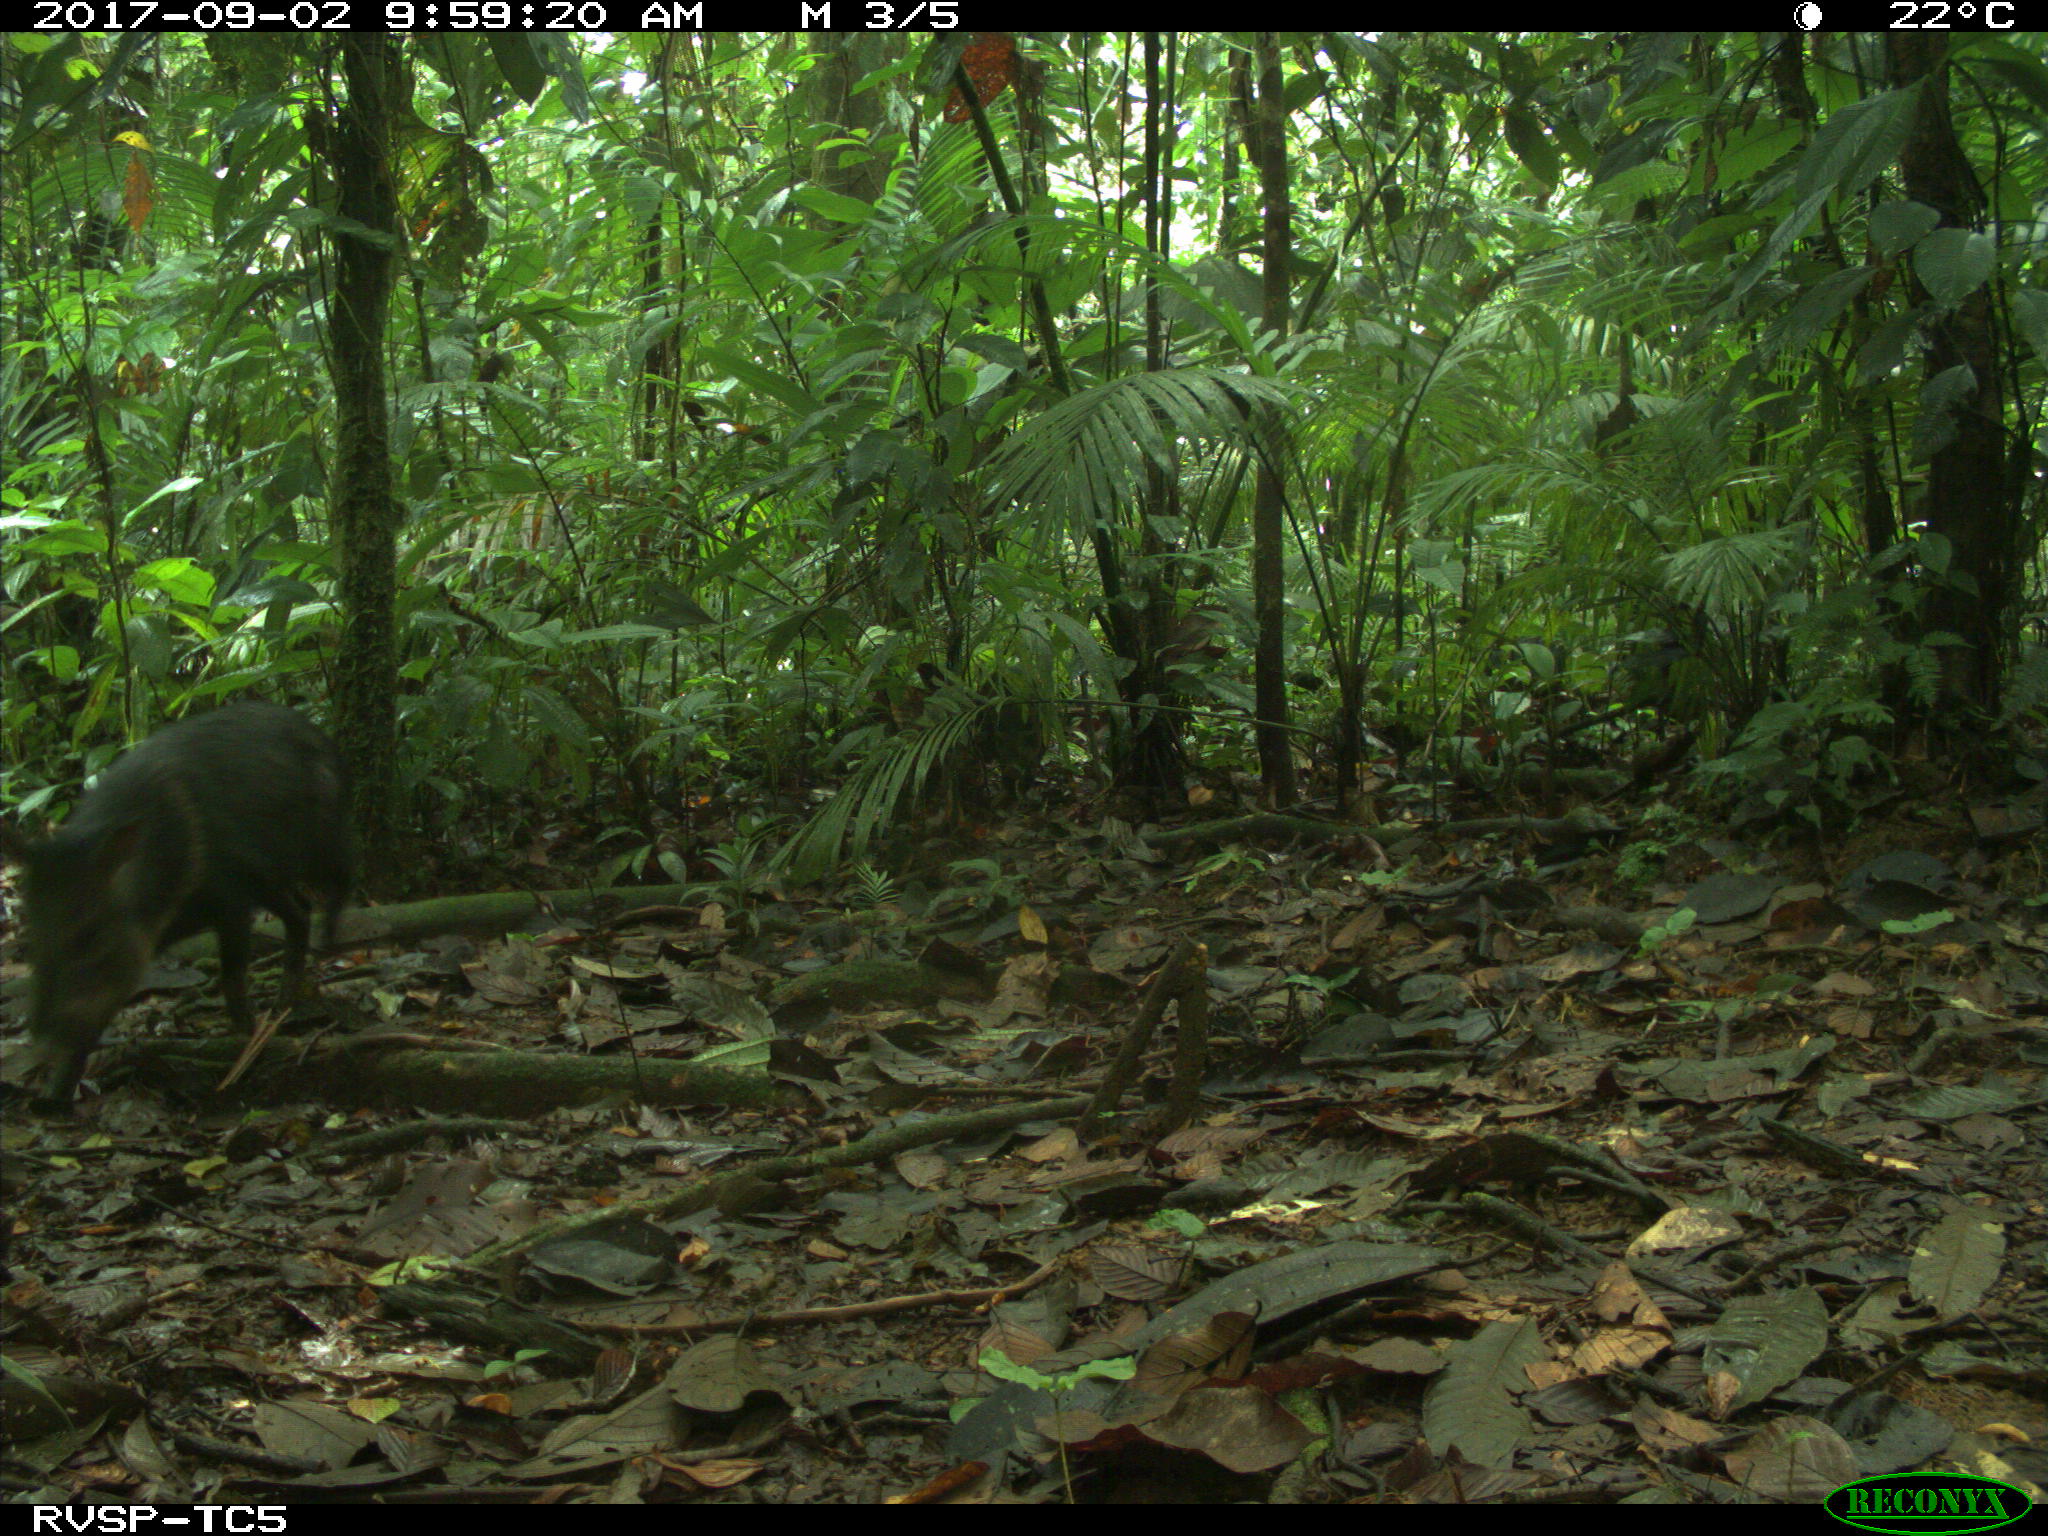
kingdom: Animalia
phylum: Chordata
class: Mammalia
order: Artiodactyla
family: Tayassuidae
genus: Pecari
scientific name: Pecari tajacu
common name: Collared peccary
